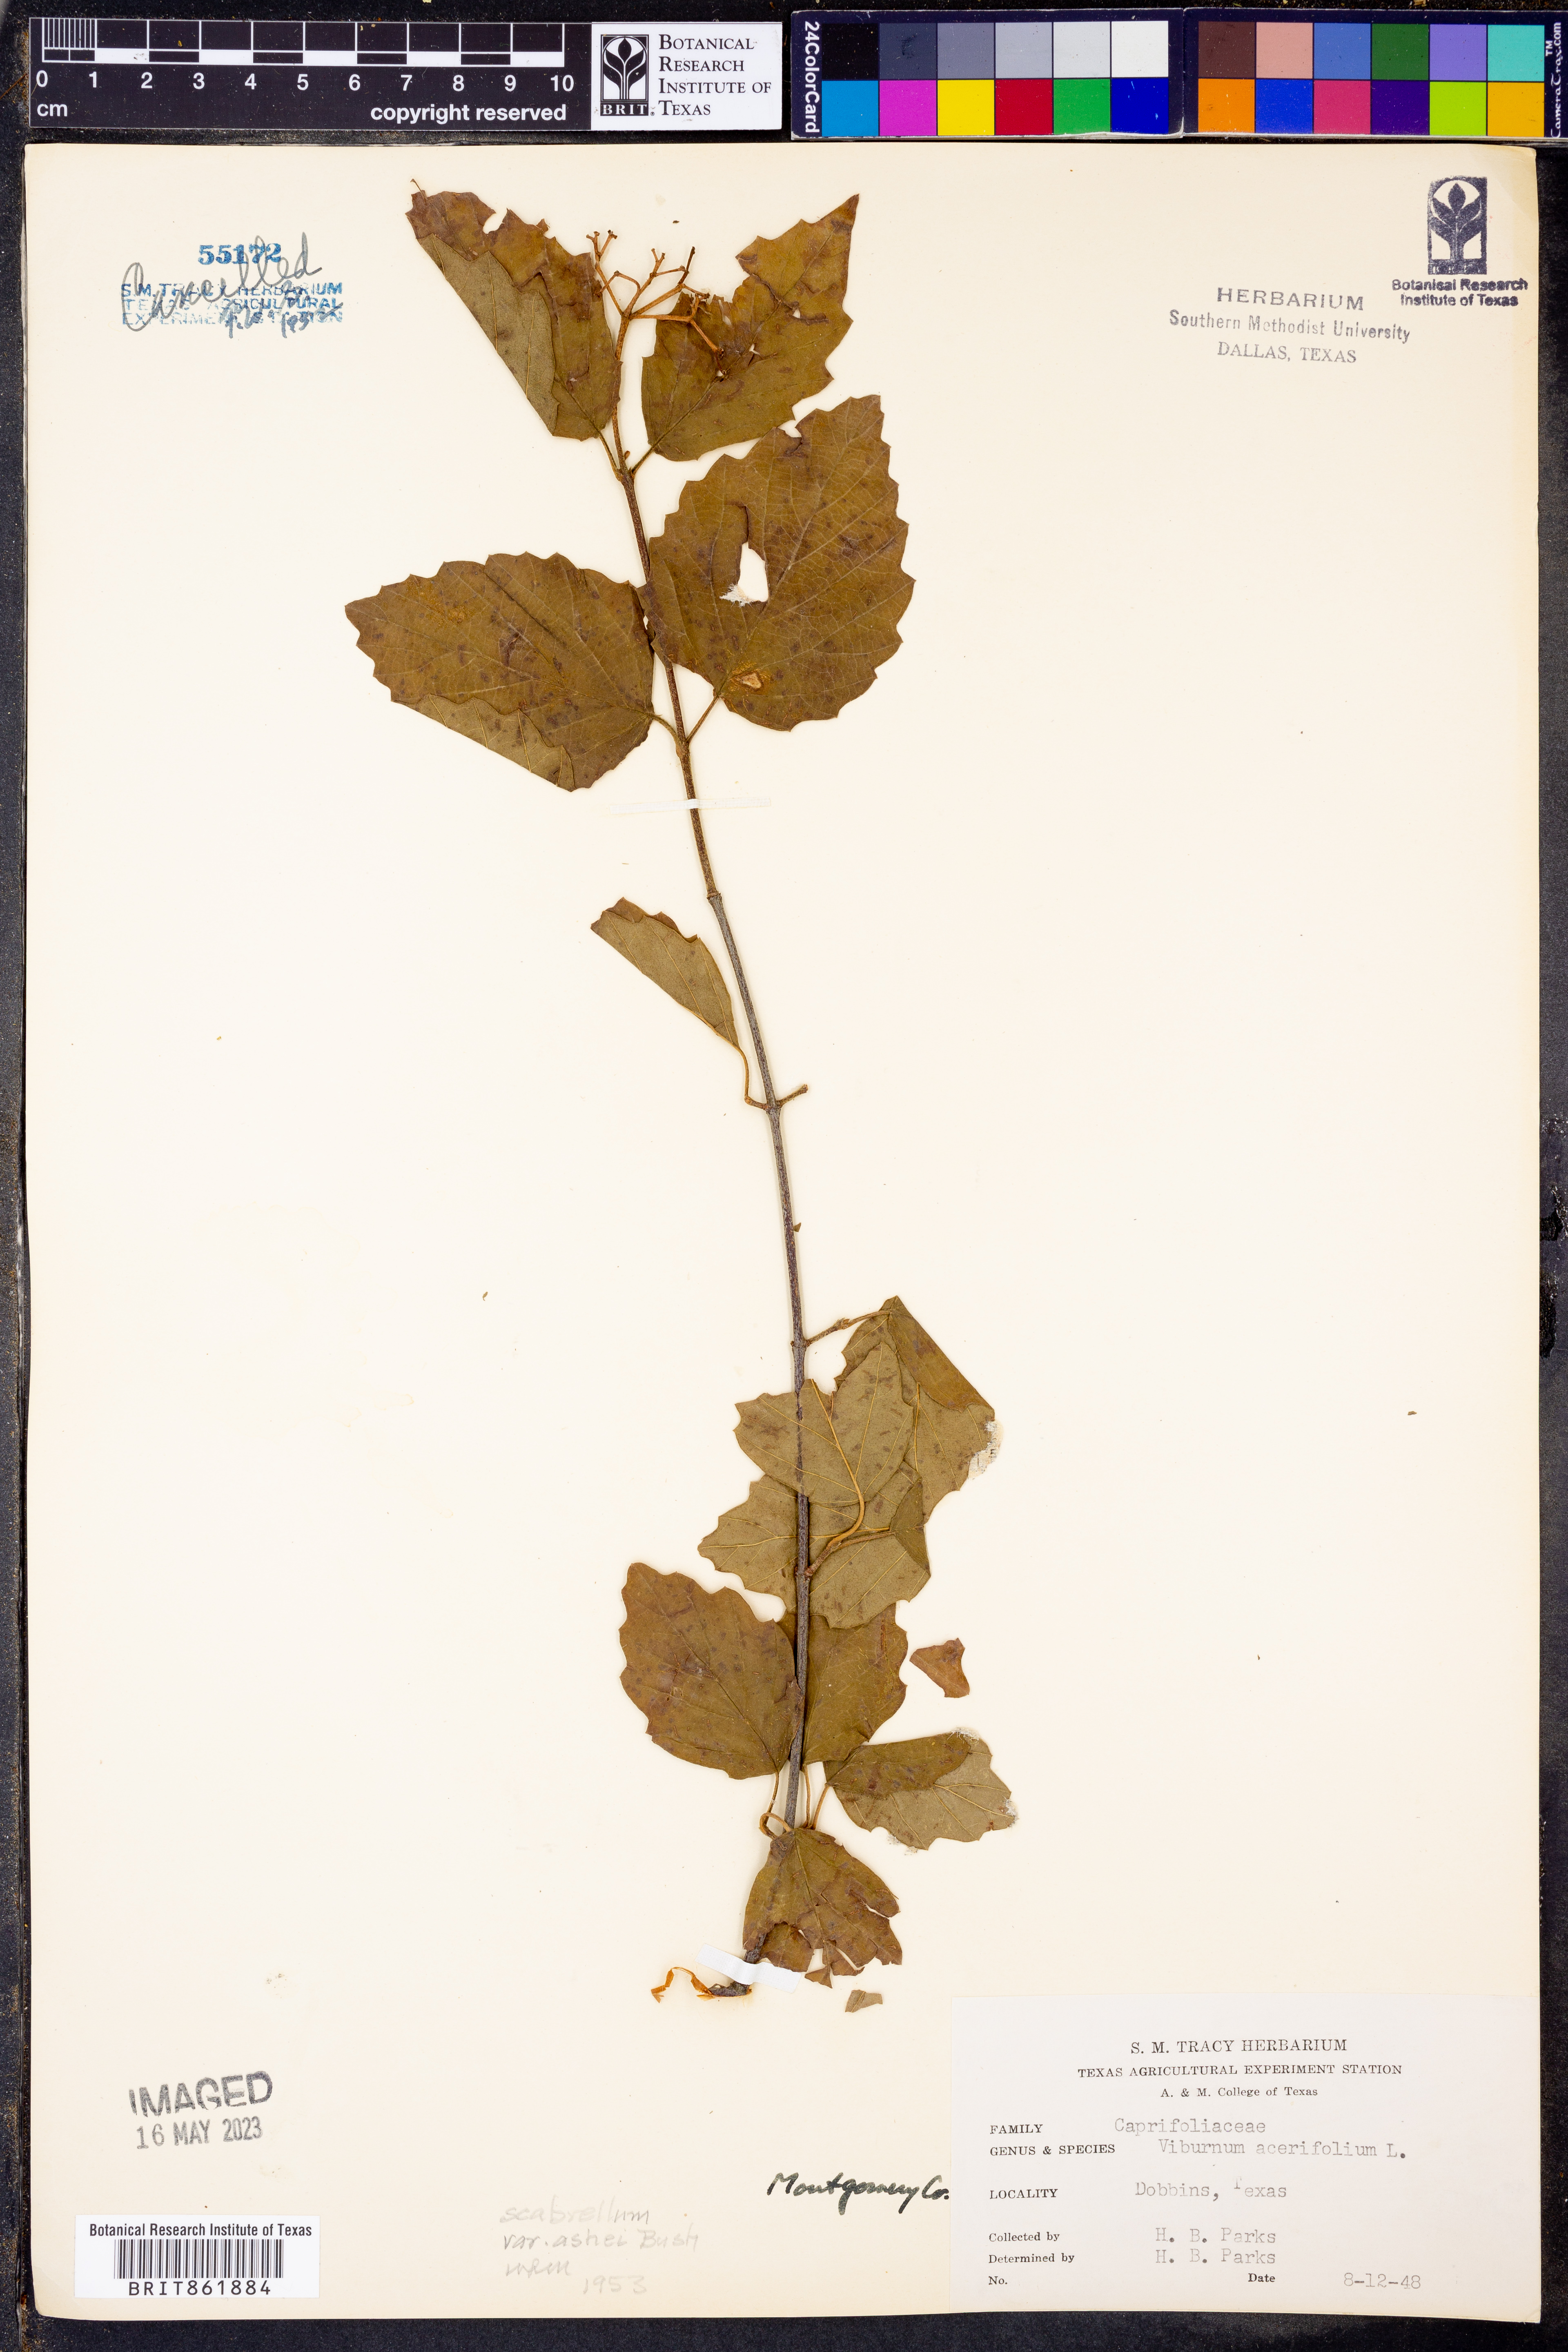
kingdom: Plantae
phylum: Tracheophyta
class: Magnoliopsida
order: Dipsacales
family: Viburnaceae
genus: Viburnum
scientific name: Viburnum scabrellum
